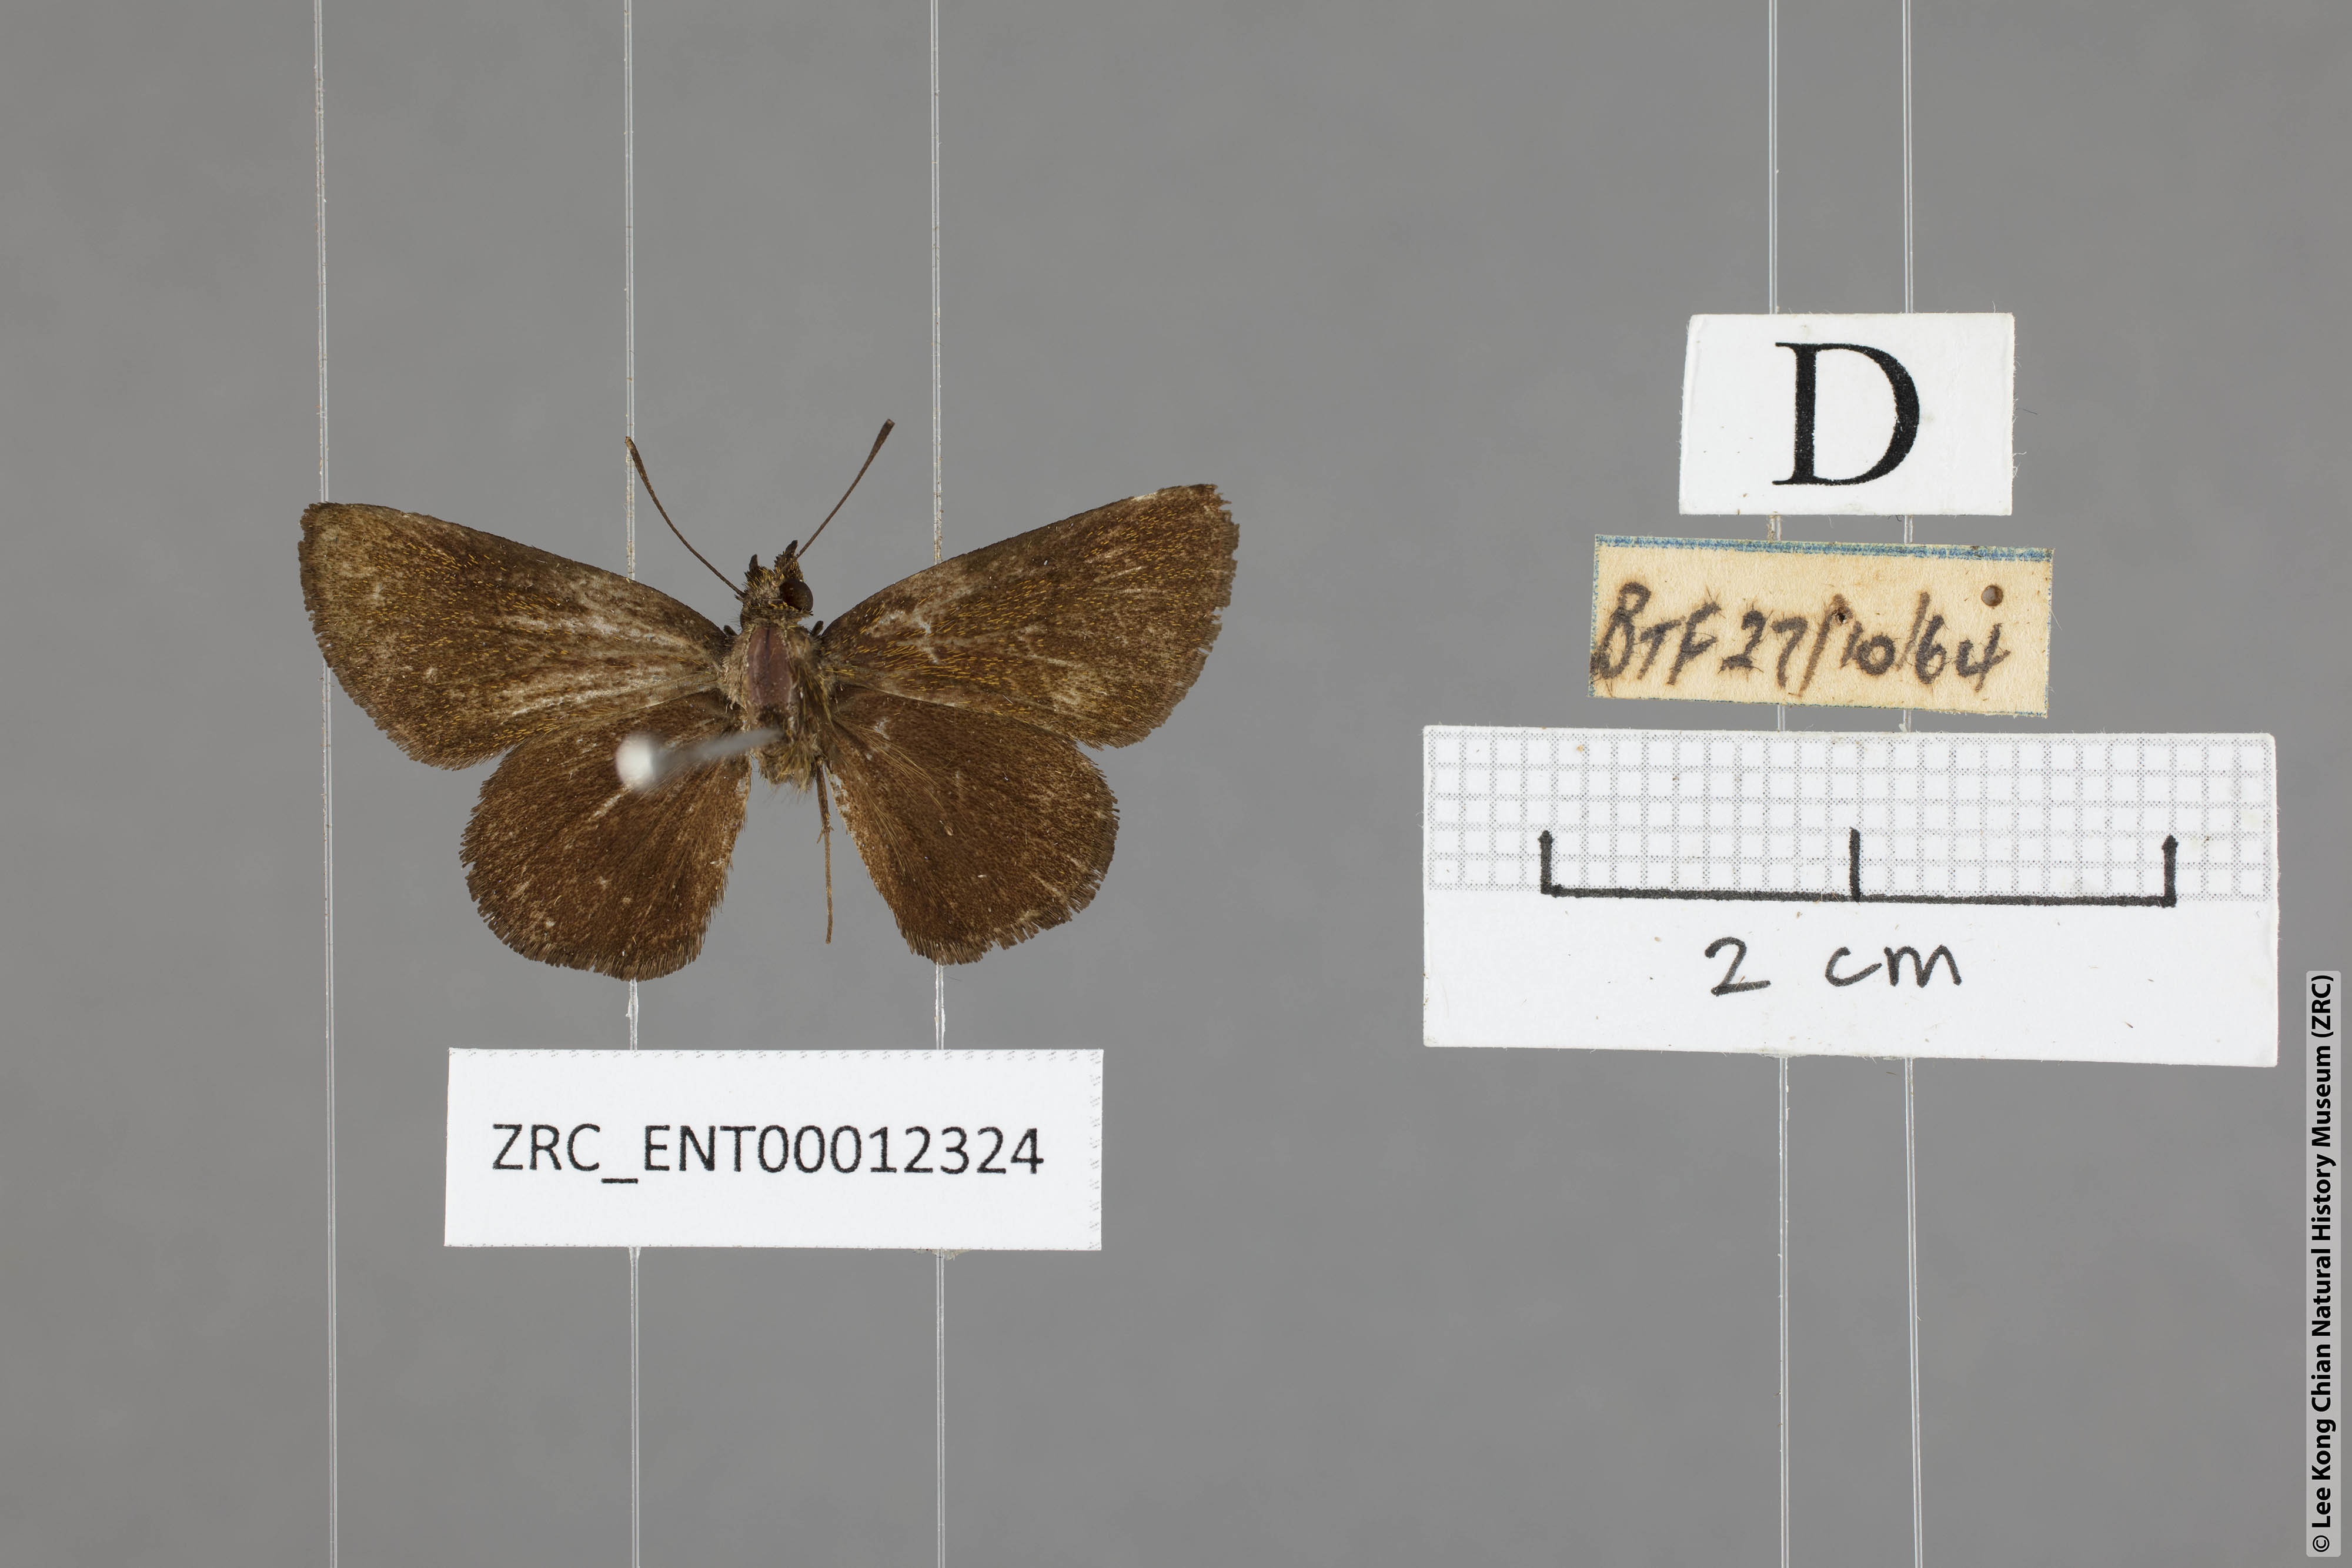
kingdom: Animalia
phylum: Arthropoda
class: Insecta
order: Lepidoptera
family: Hesperiidae
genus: Arnetta
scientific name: Arnetta verones
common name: Sumatran bob
